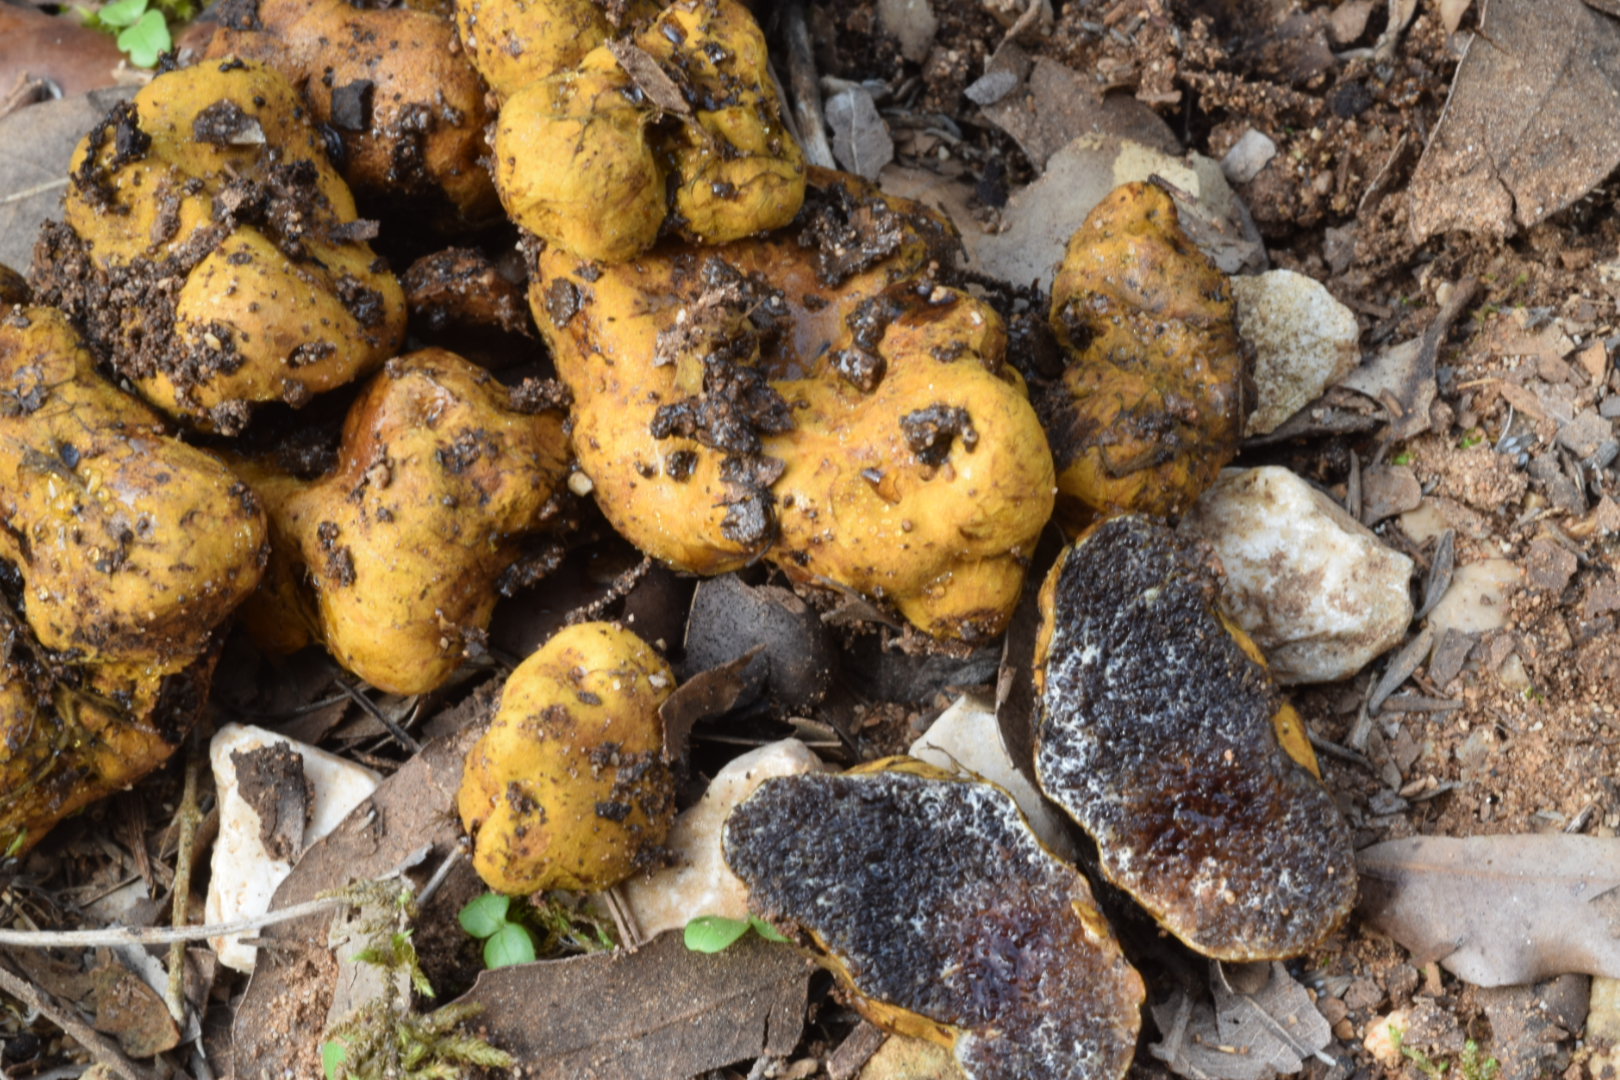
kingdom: Fungi
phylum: Basidiomycota
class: Agaricomycetes
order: Boletales
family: Paxillaceae
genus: Melanogaster
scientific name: Melanogaster
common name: slimtrøffel
